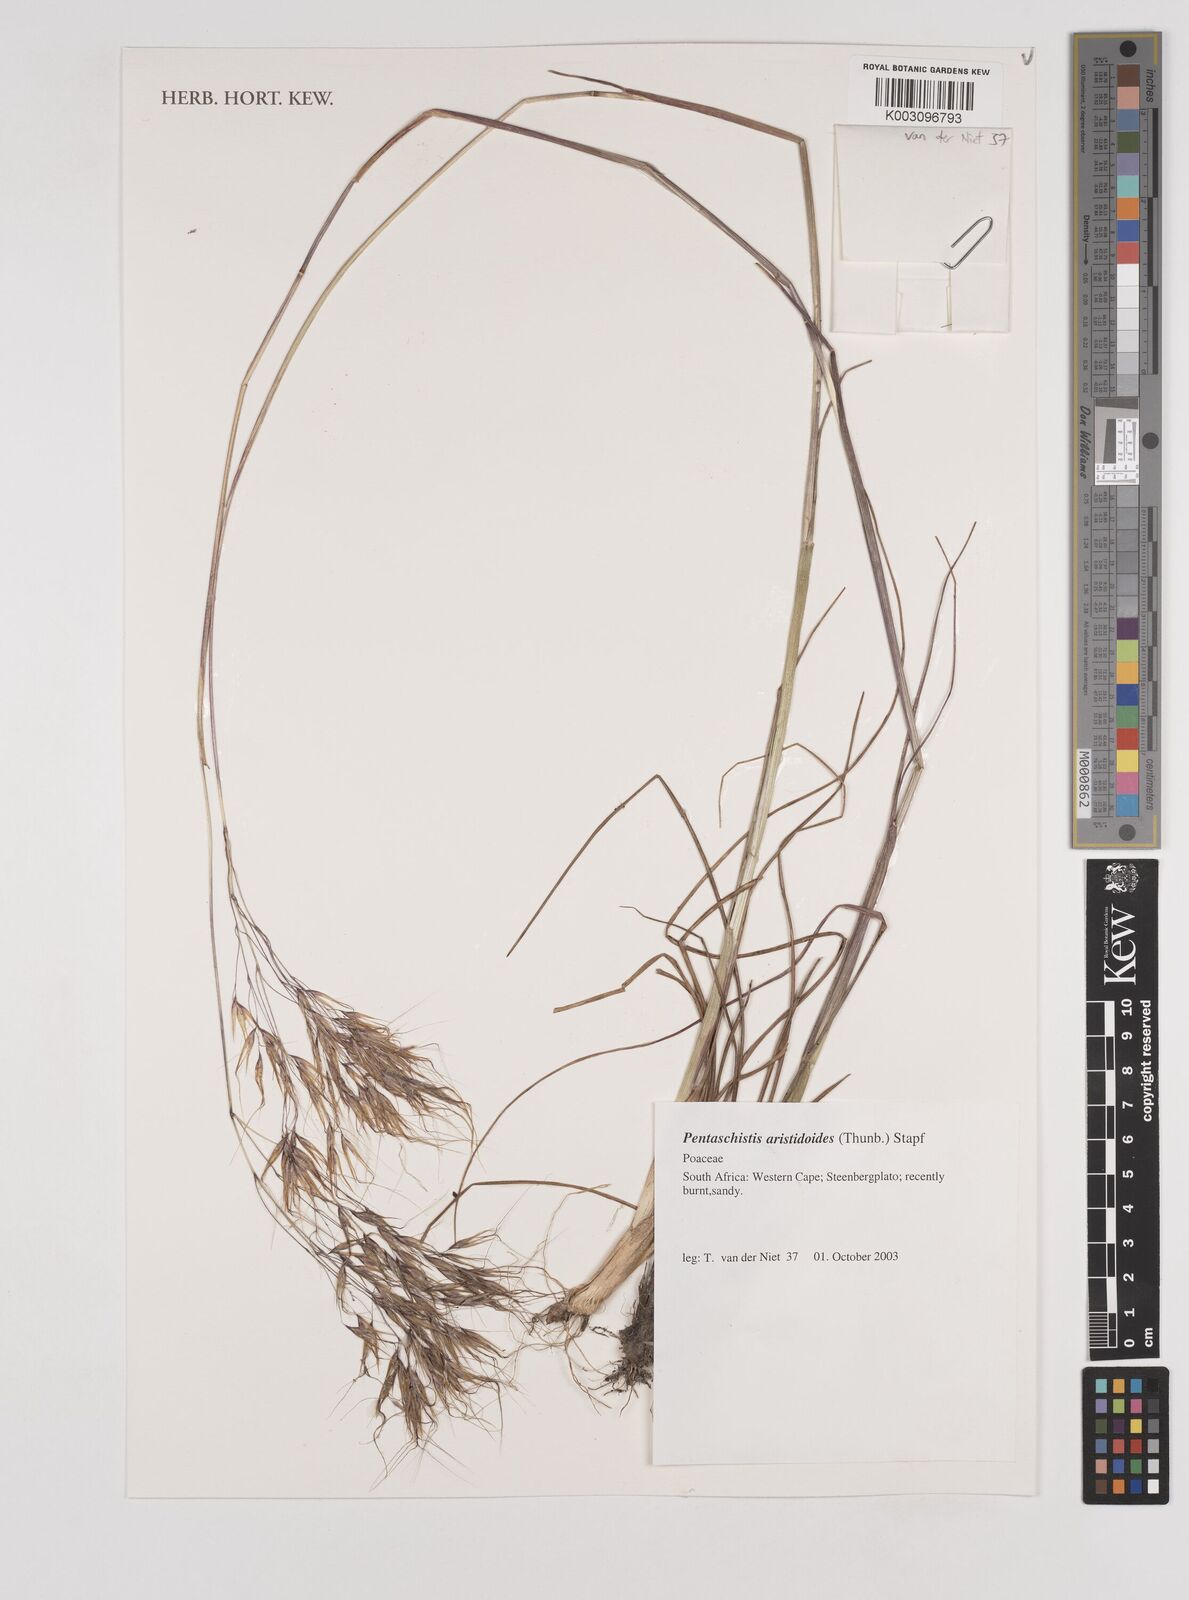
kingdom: Plantae
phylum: Tracheophyta
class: Liliopsida
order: Poales
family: Poaceae
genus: Pentameris
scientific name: Pentameris aristidoides
